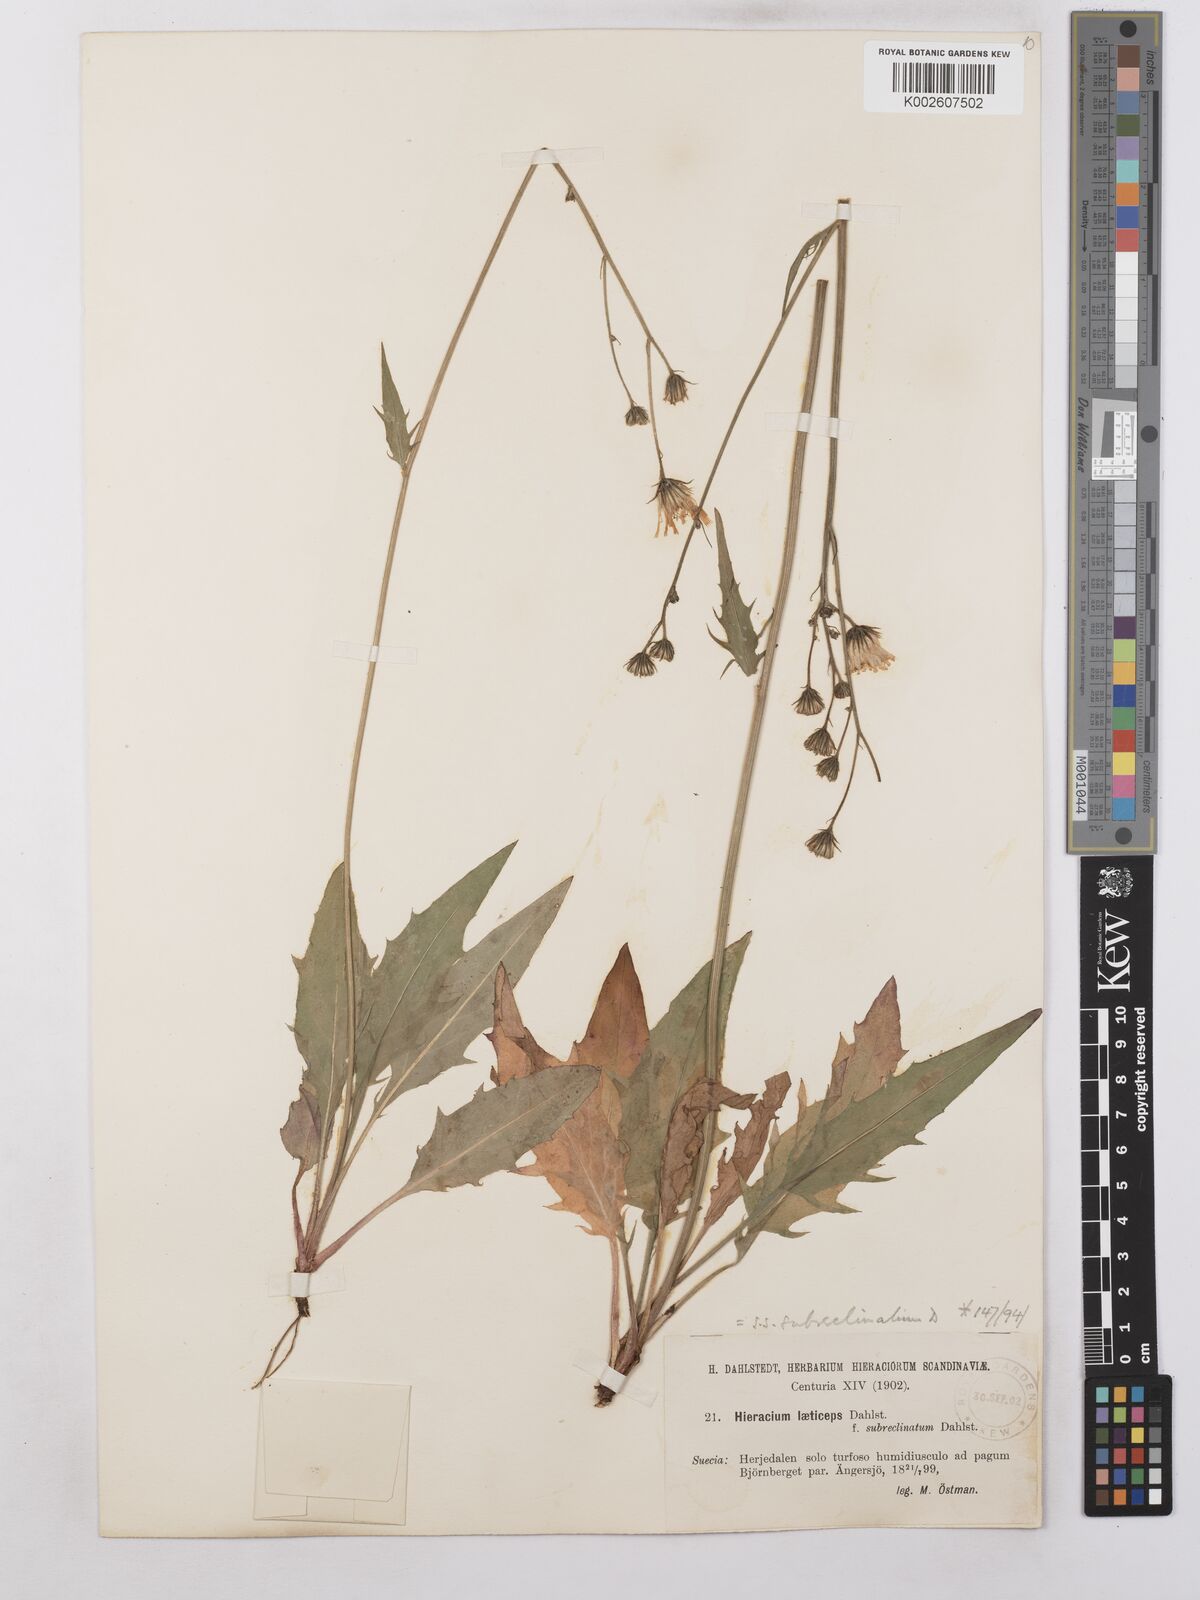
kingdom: Plantae
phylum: Tracheophyta
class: Magnoliopsida
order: Asterales
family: Asteraceae
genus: Hieracium
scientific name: Hieracium caesium
